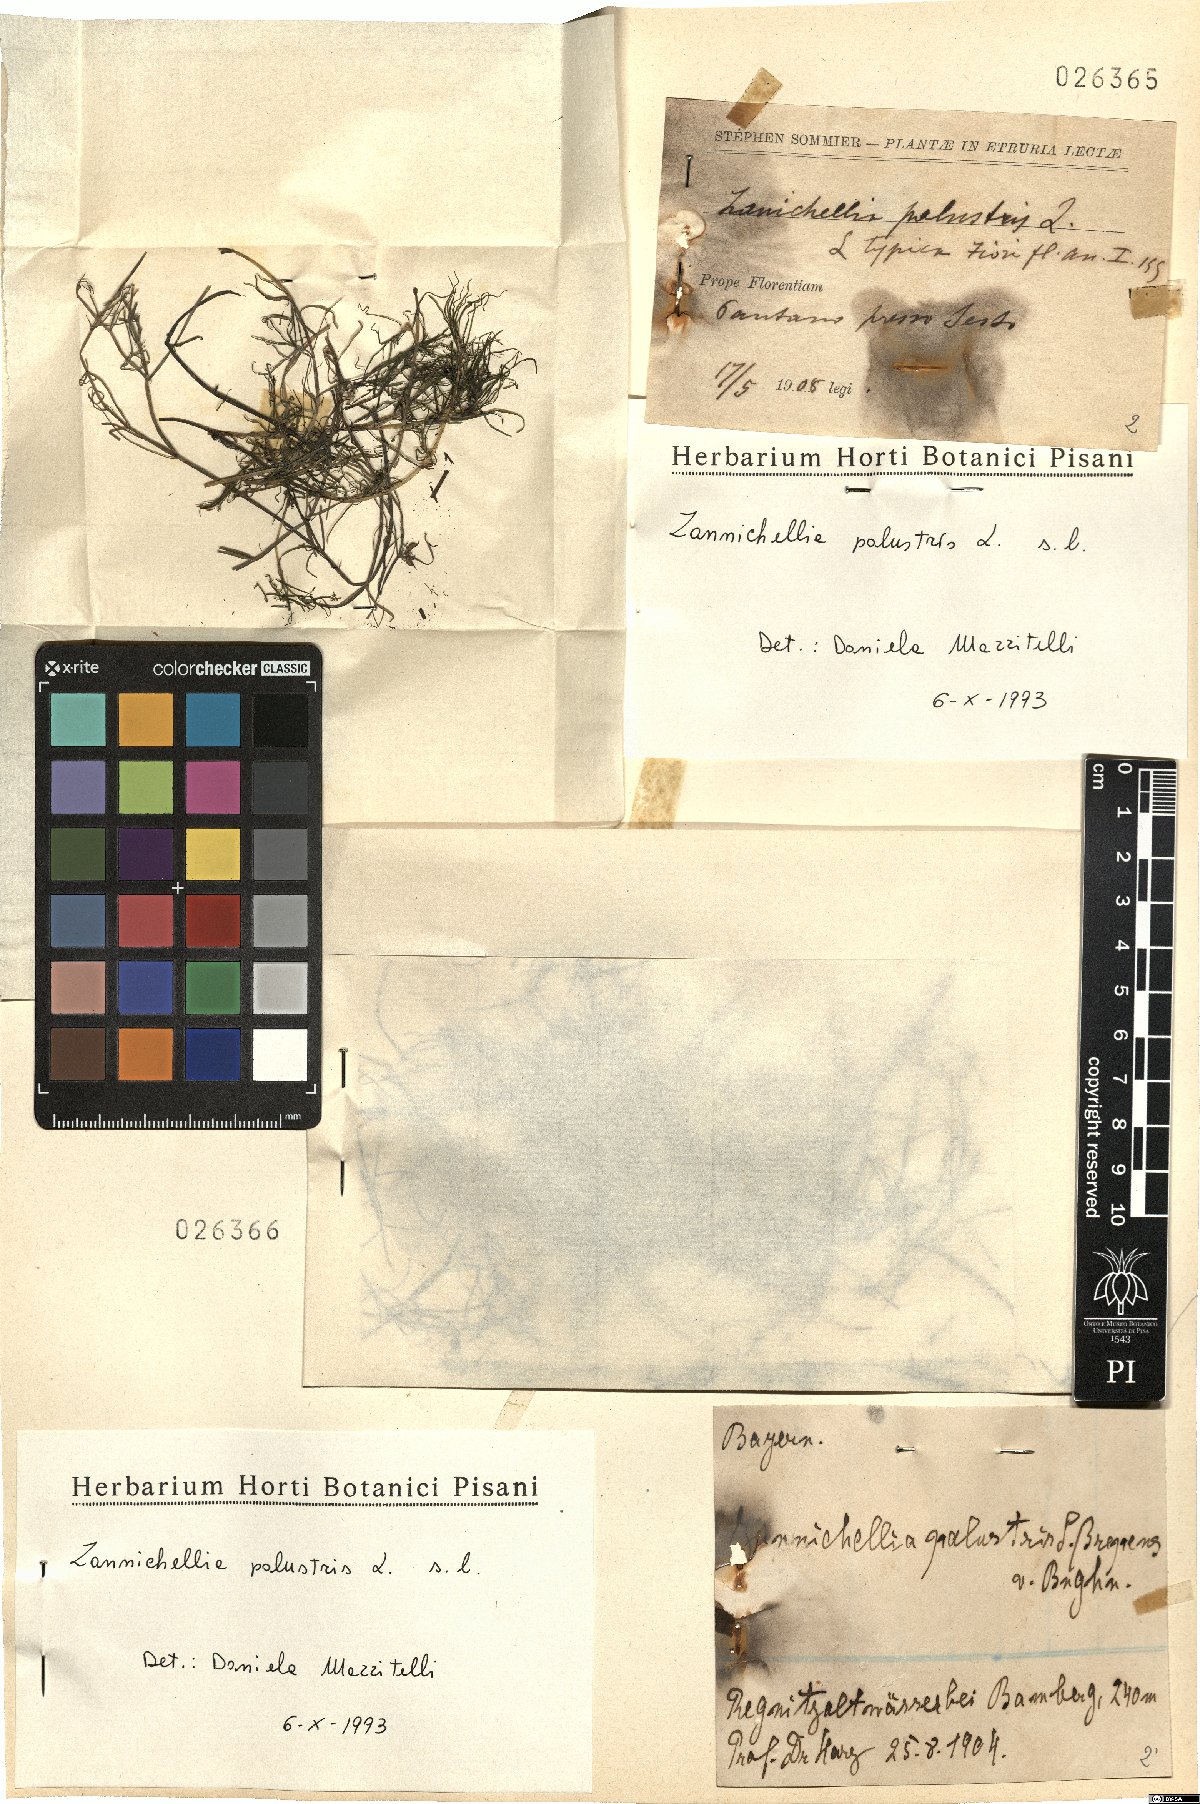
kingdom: Plantae
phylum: Tracheophyta
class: Liliopsida
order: Alismatales
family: Potamogetonaceae
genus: Zannichellia
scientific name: Zannichellia palustris
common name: Horned pondweed
